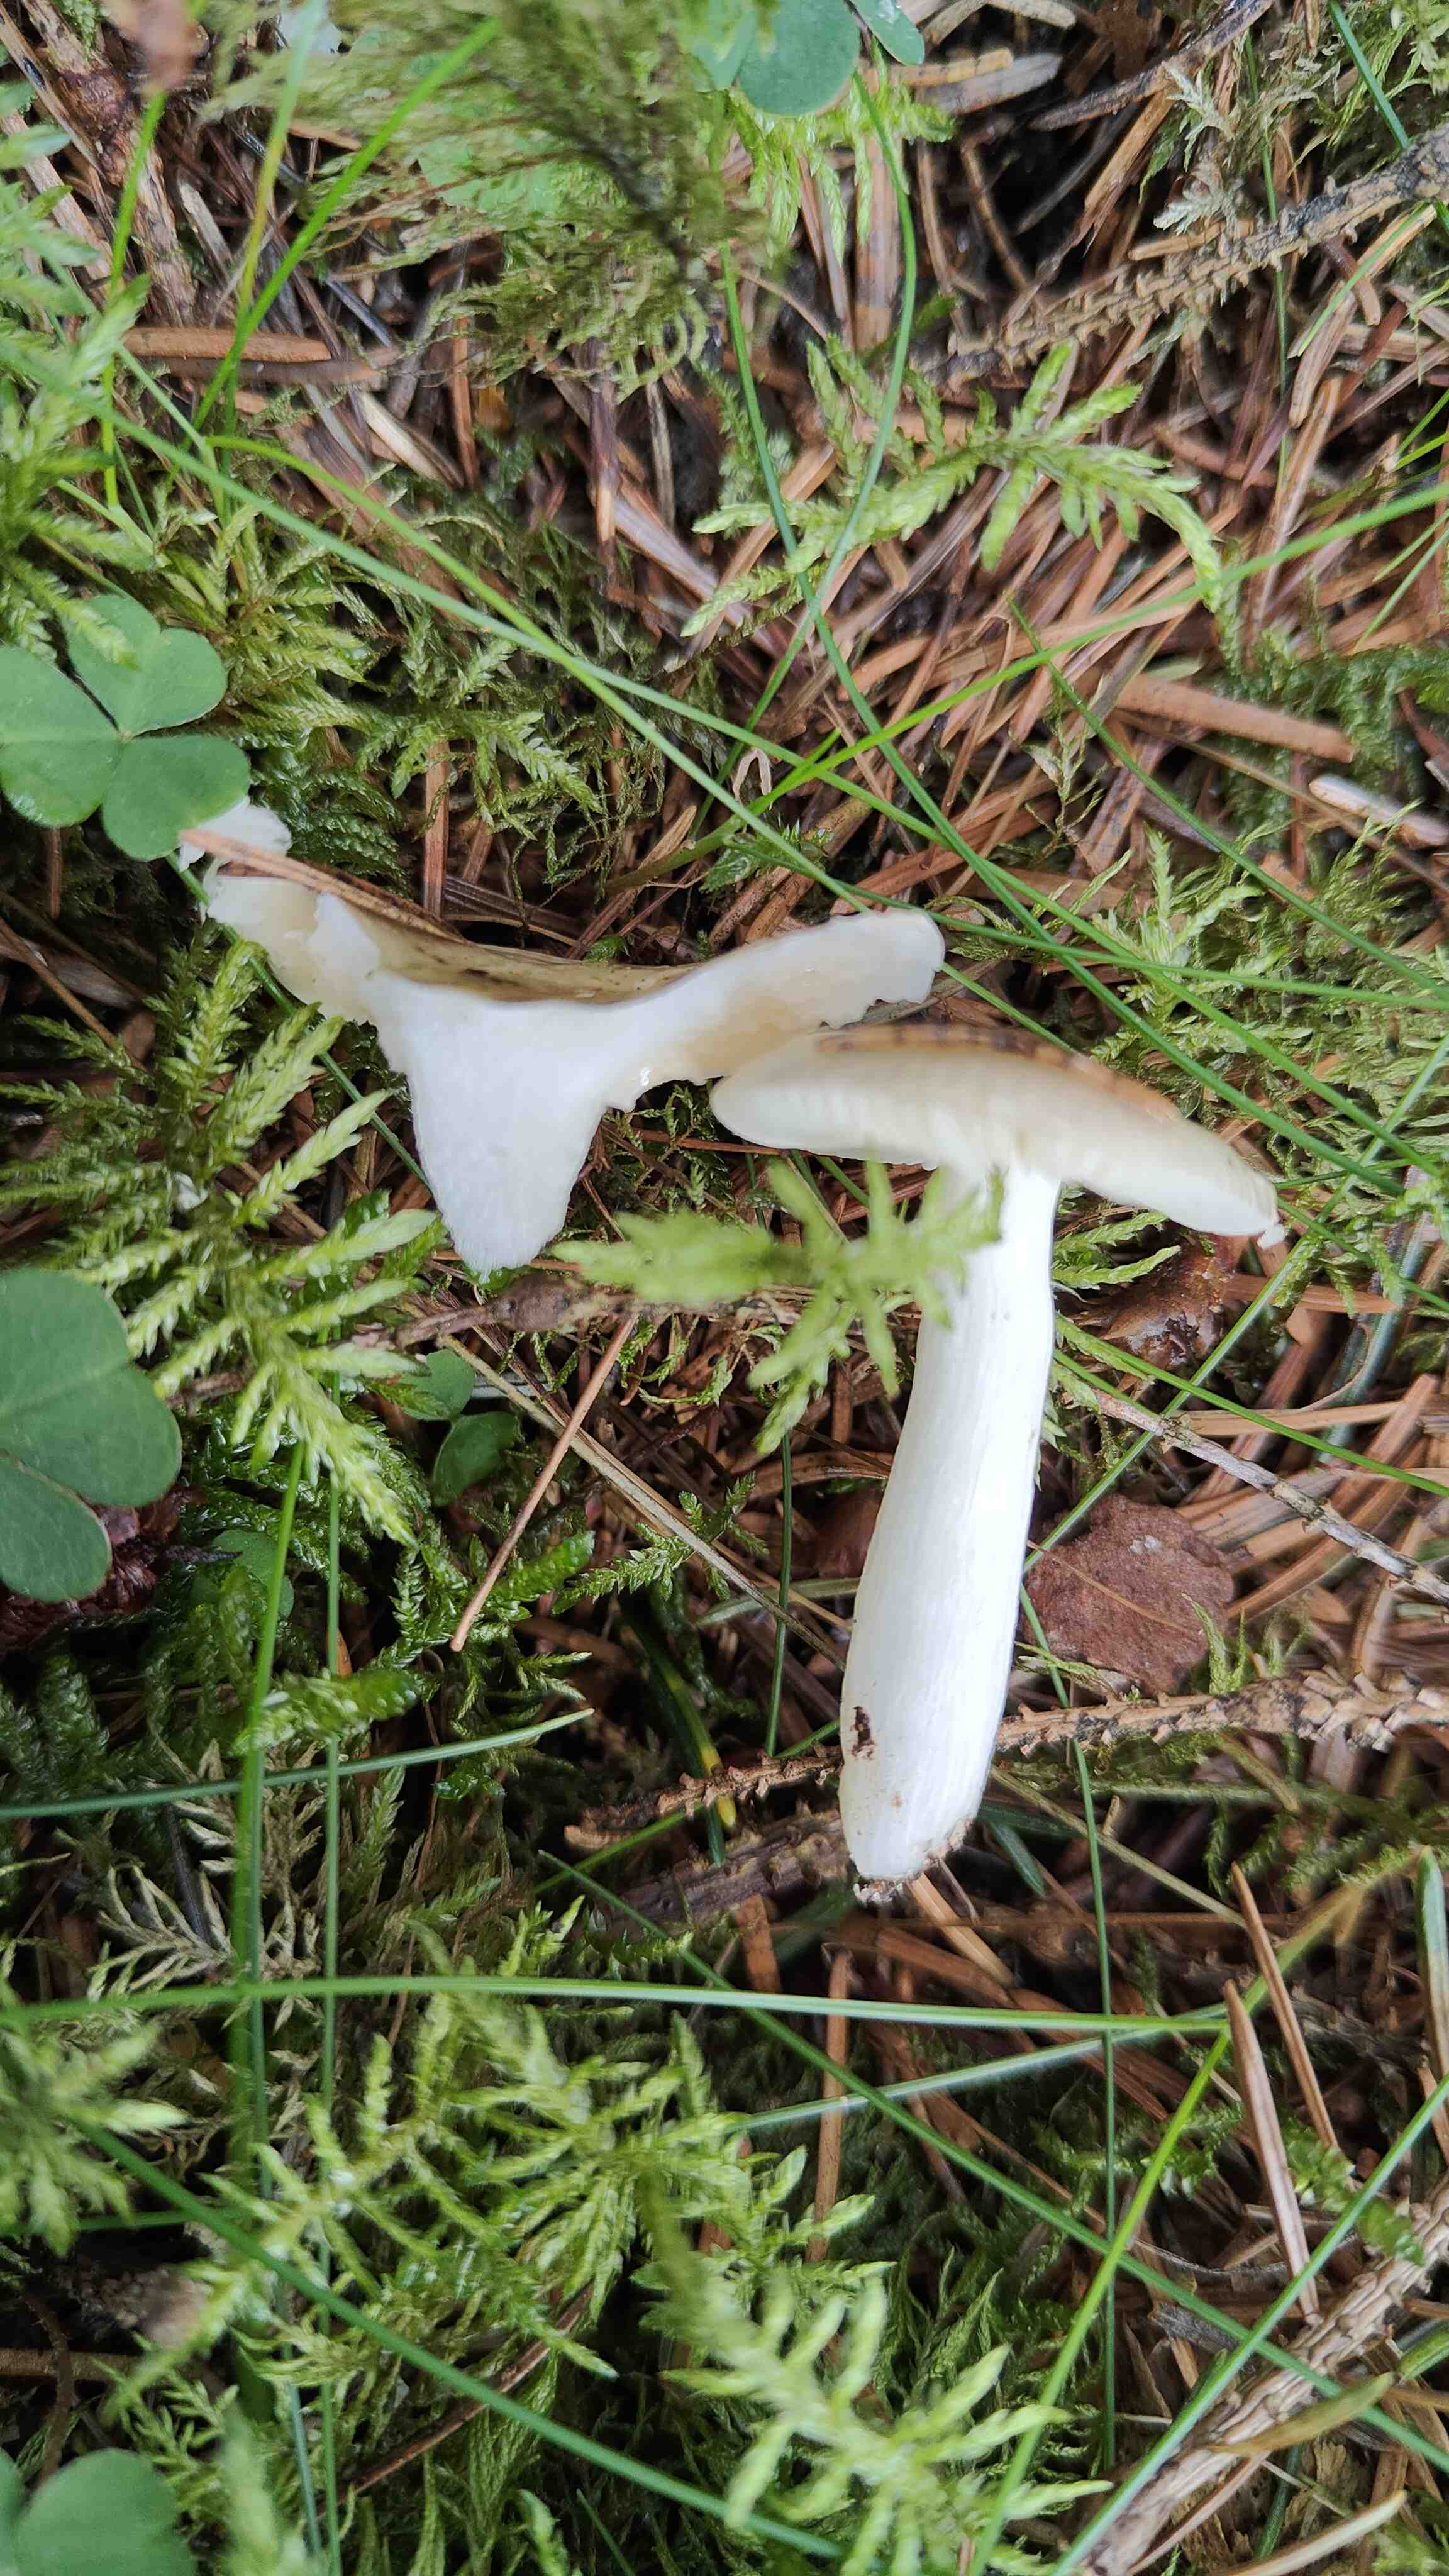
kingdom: Fungi
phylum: Basidiomycota
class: Agaricomycetes
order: Russulales
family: Russulaceae
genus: Russula
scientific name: Russula
